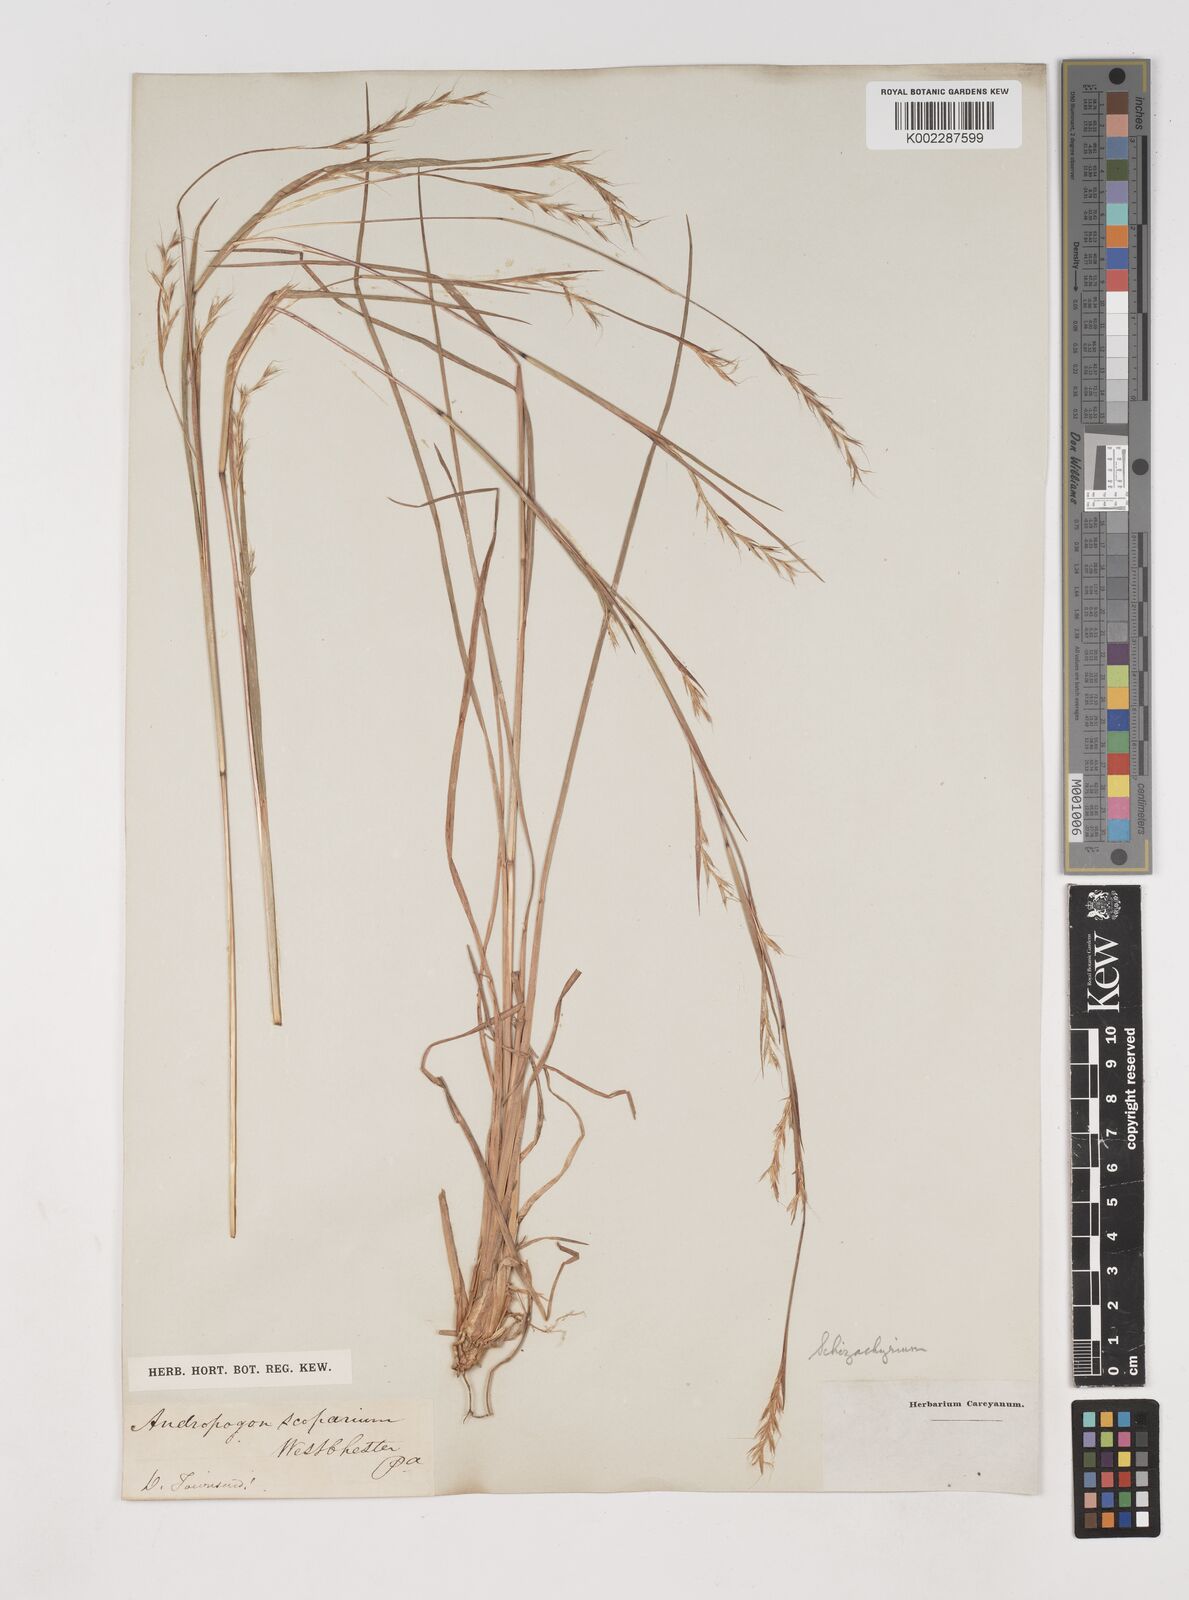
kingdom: Plantae
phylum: Tracheophyta
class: Liliopsida
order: Poales
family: Poaceae
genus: Schizachyrium
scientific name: Schizachyrium scoparium
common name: Little bluestem
